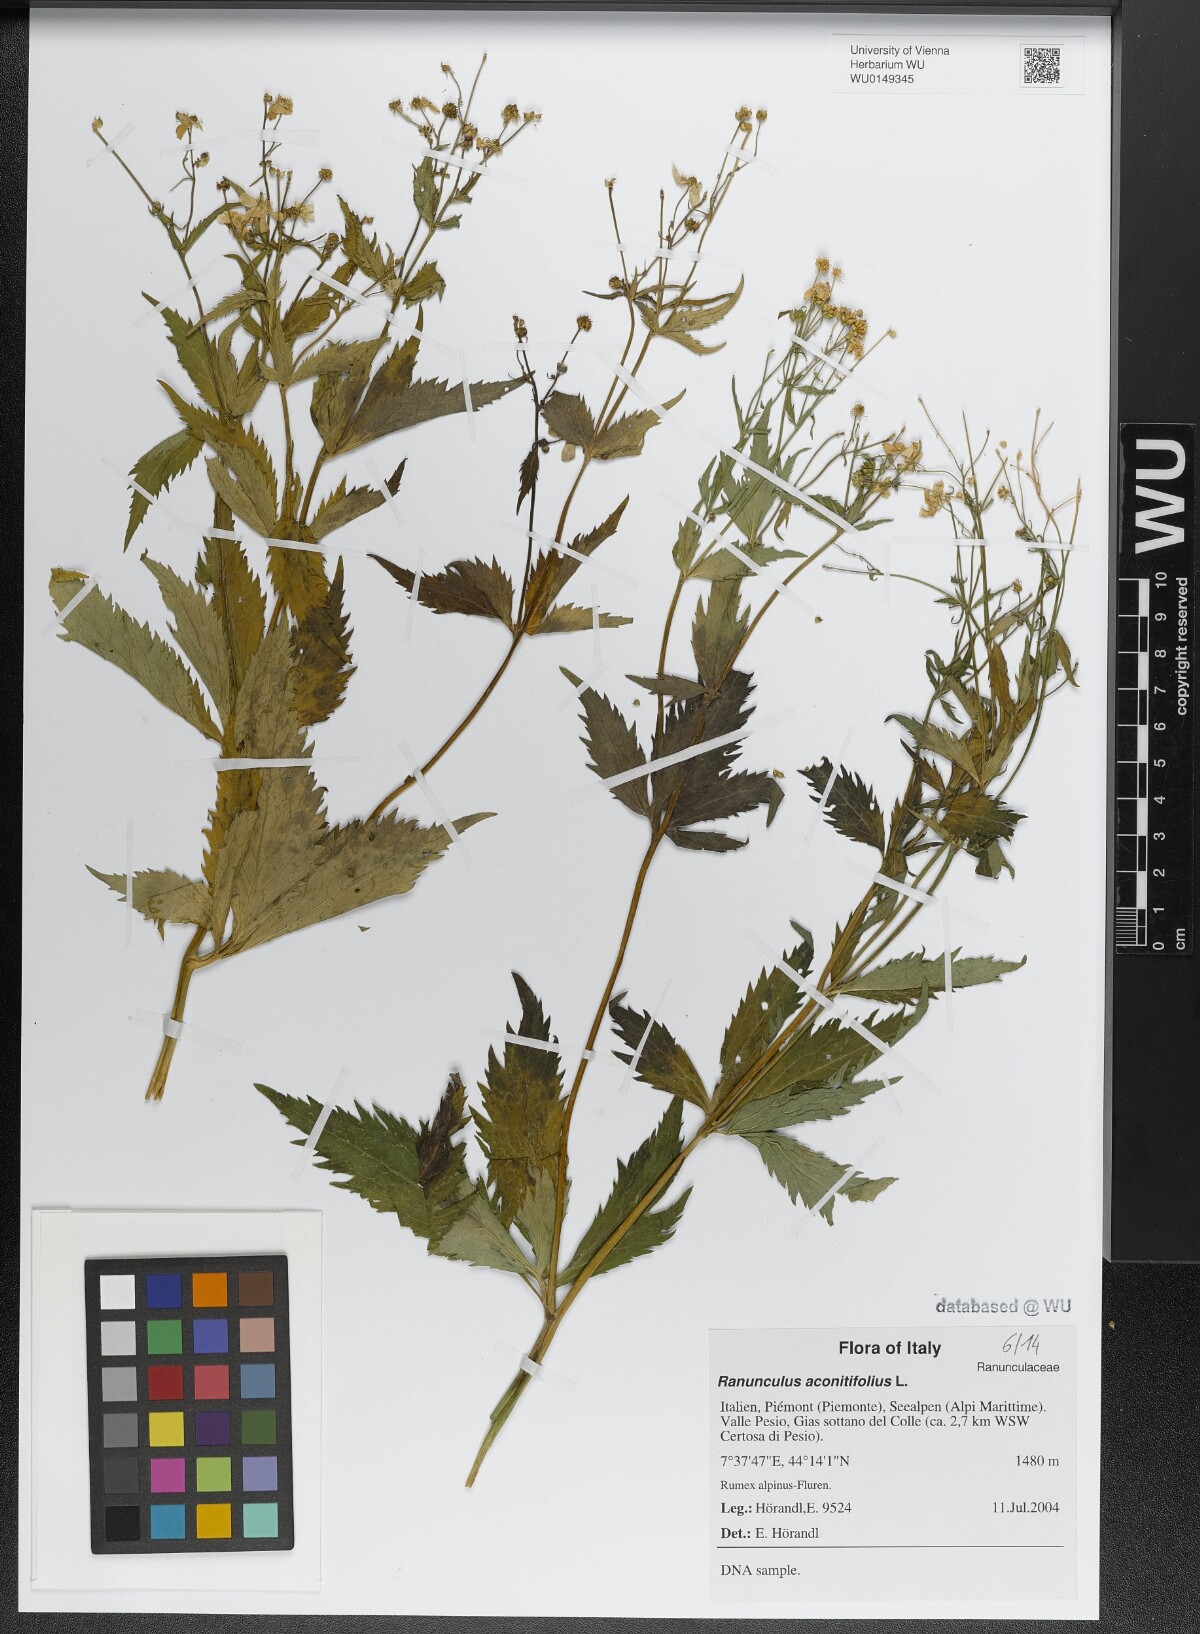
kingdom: Plantae
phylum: Tracheophyta
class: Magnoliopsida
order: Ranunculales
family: Ranunculaceae
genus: Ranunculus
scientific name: Ranunculus aconitifolius
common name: Aconite-leaved buttercup
